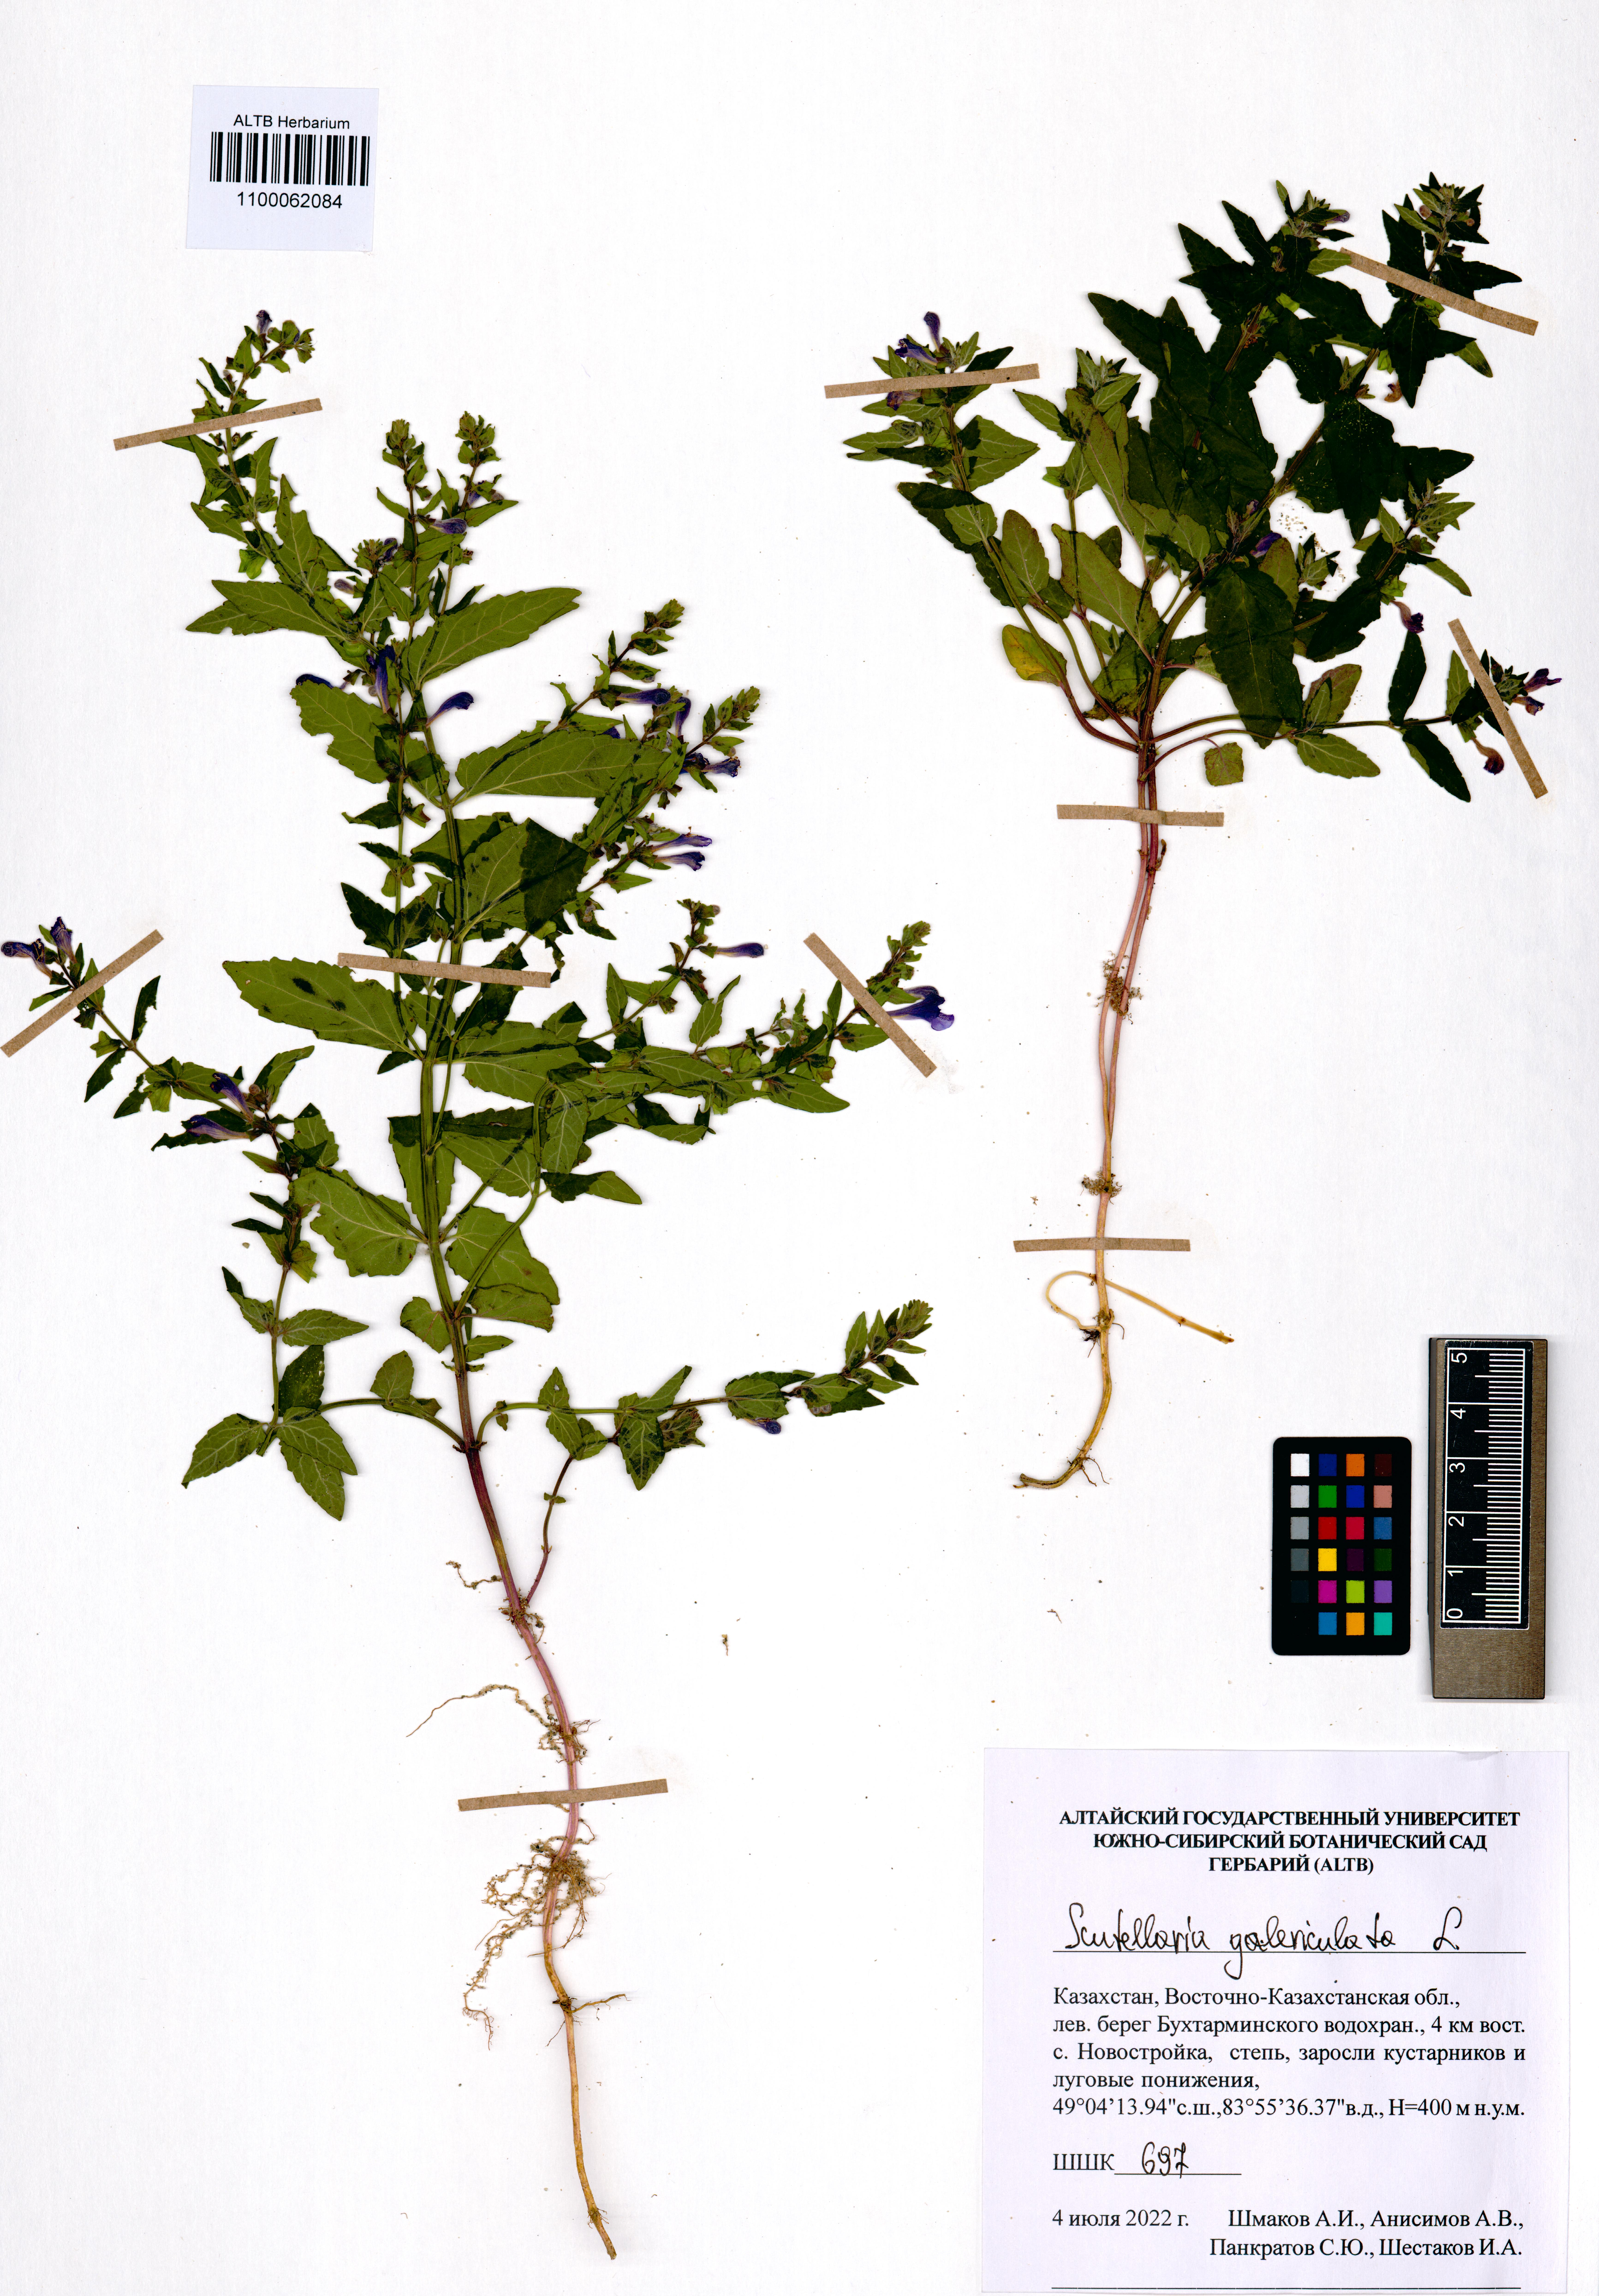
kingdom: Plantae
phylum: Tracheophyta
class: Magnoliopsida
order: Lamiales
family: Lamiaceae
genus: Scutellaria
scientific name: Scutellaria galericulata
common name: Skullcap
